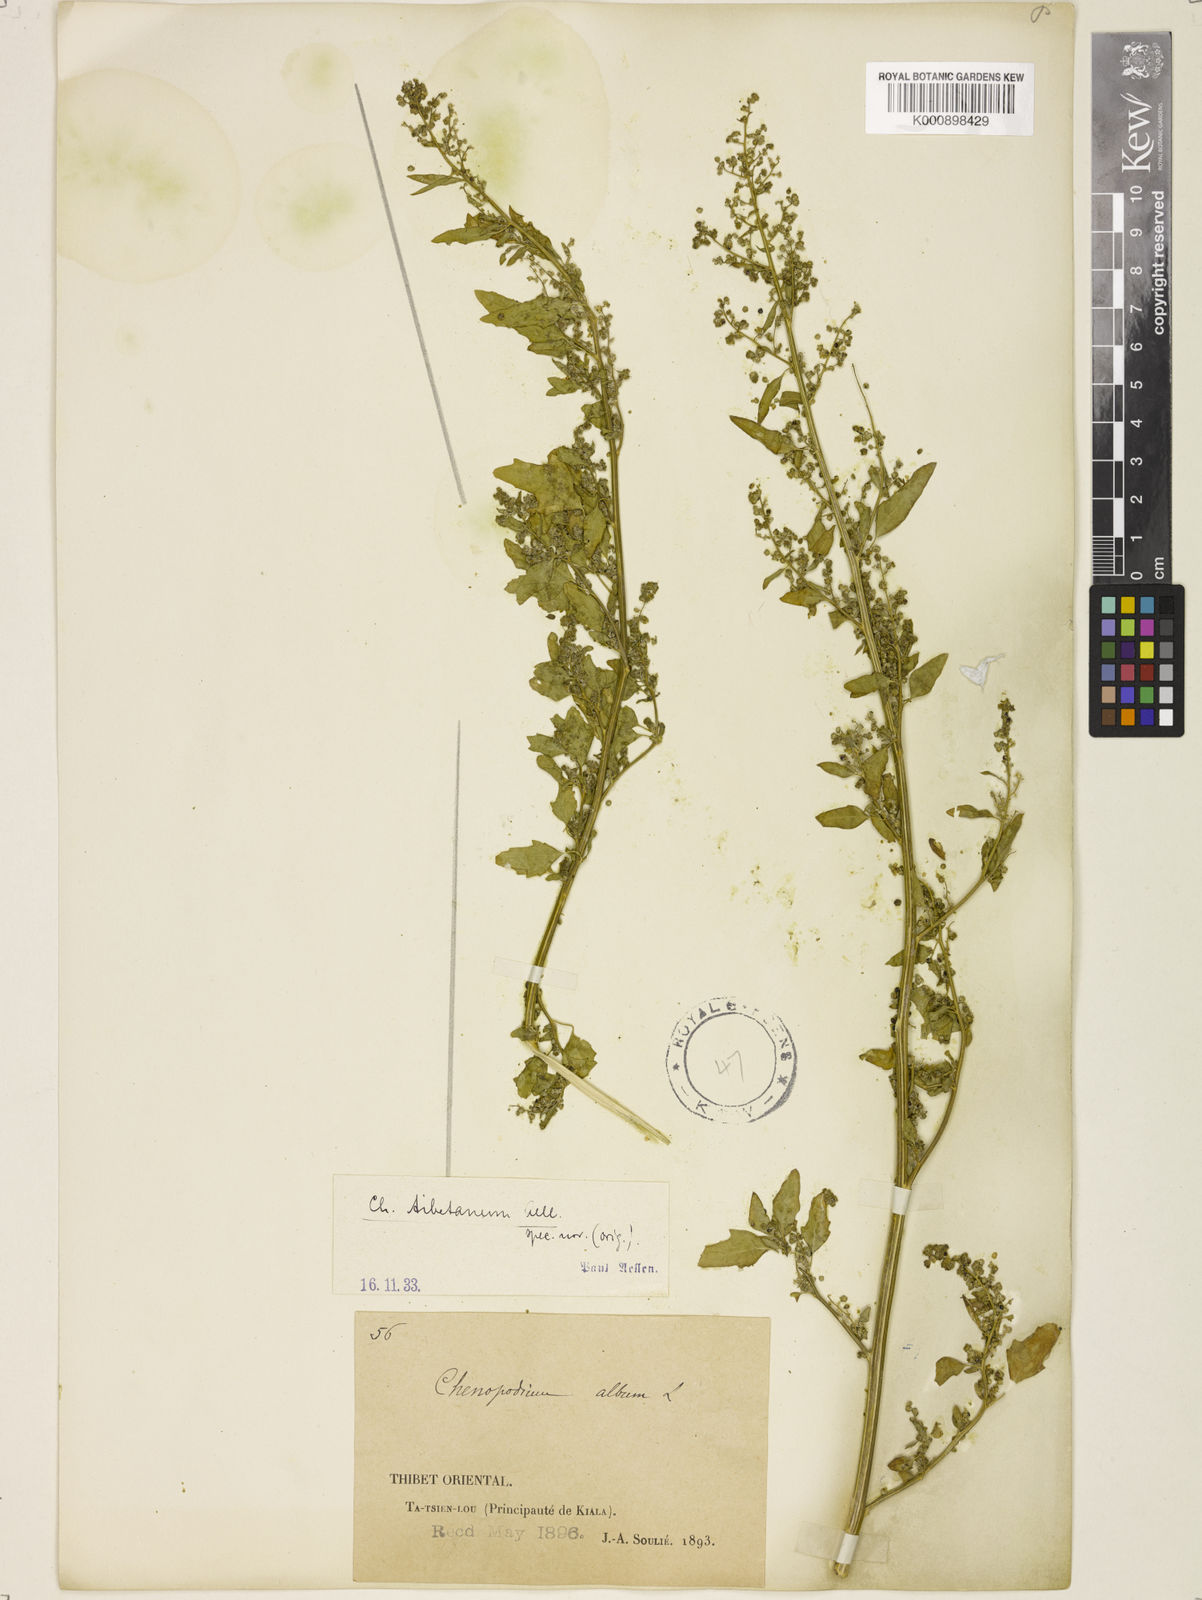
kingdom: Plantae
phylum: Tracheophyta
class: Magnoliopsida
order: Caryophyllales
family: Amaranthaceae
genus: Chenopodium
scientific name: Chenopodium
